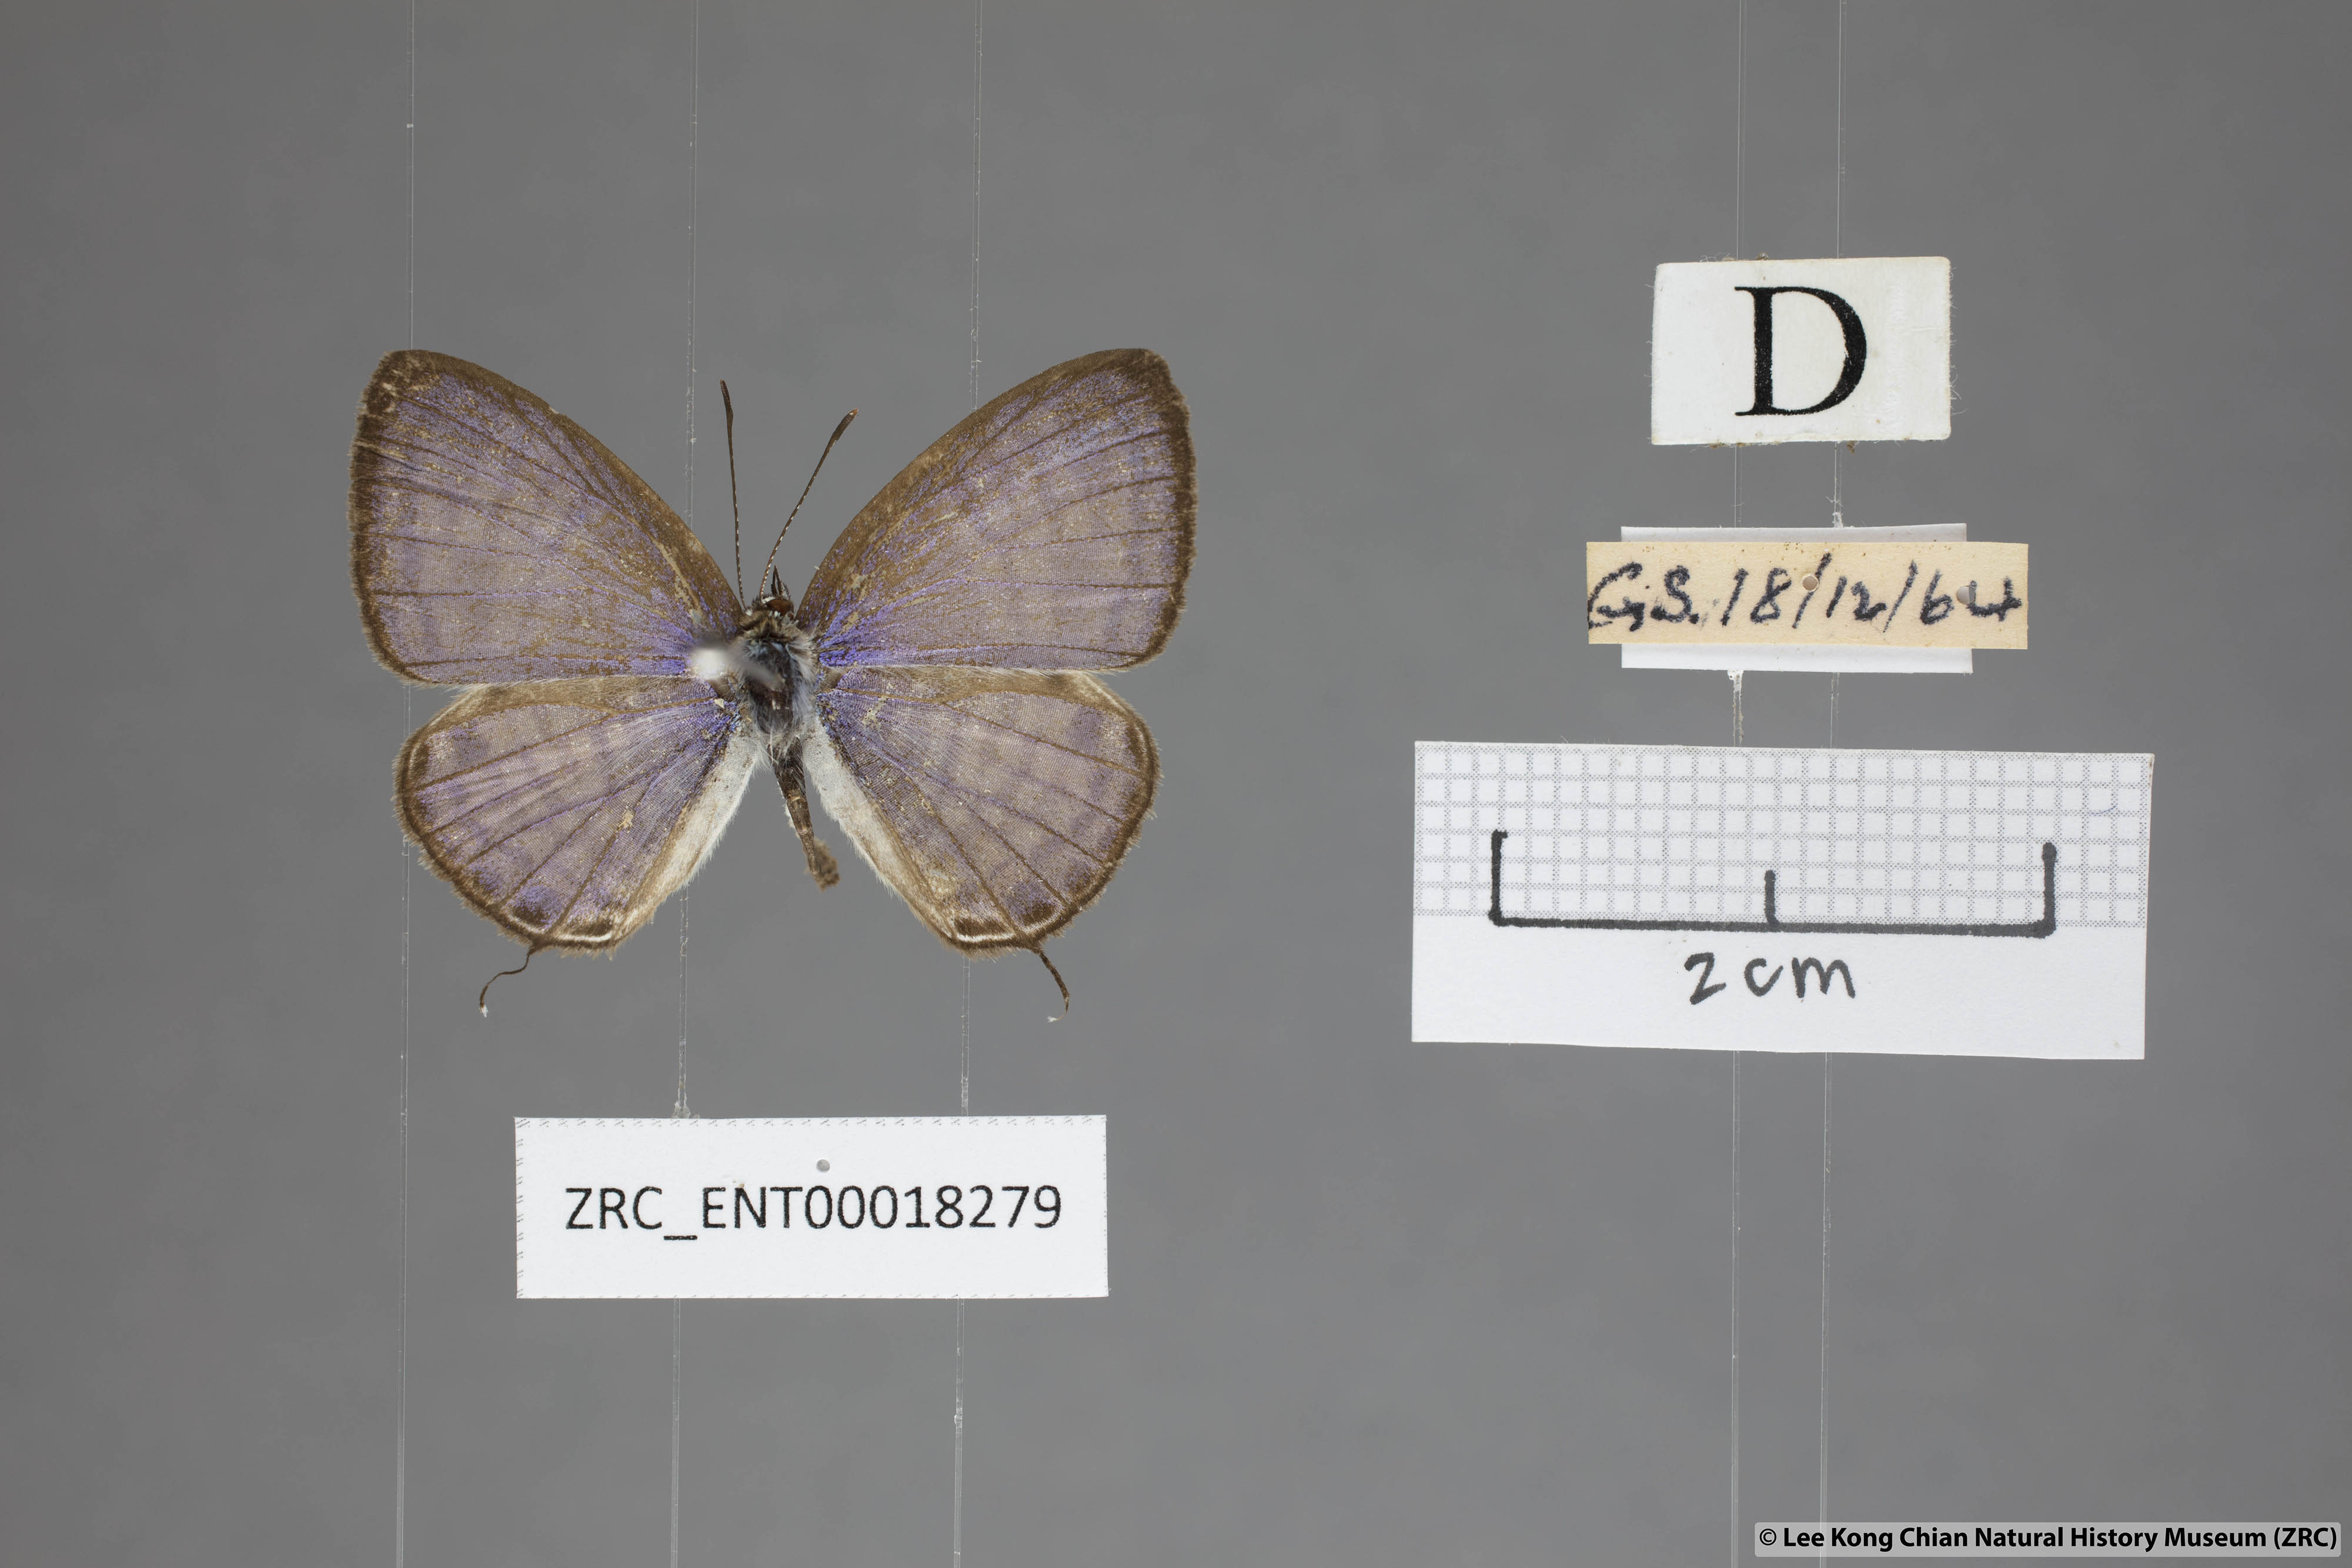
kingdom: Animalia
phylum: Arthropoda
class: Insecta
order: Lepidoptera
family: Lycaenidae
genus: Nacaduba
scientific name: Nacaduba angusta
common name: White four-line blue
